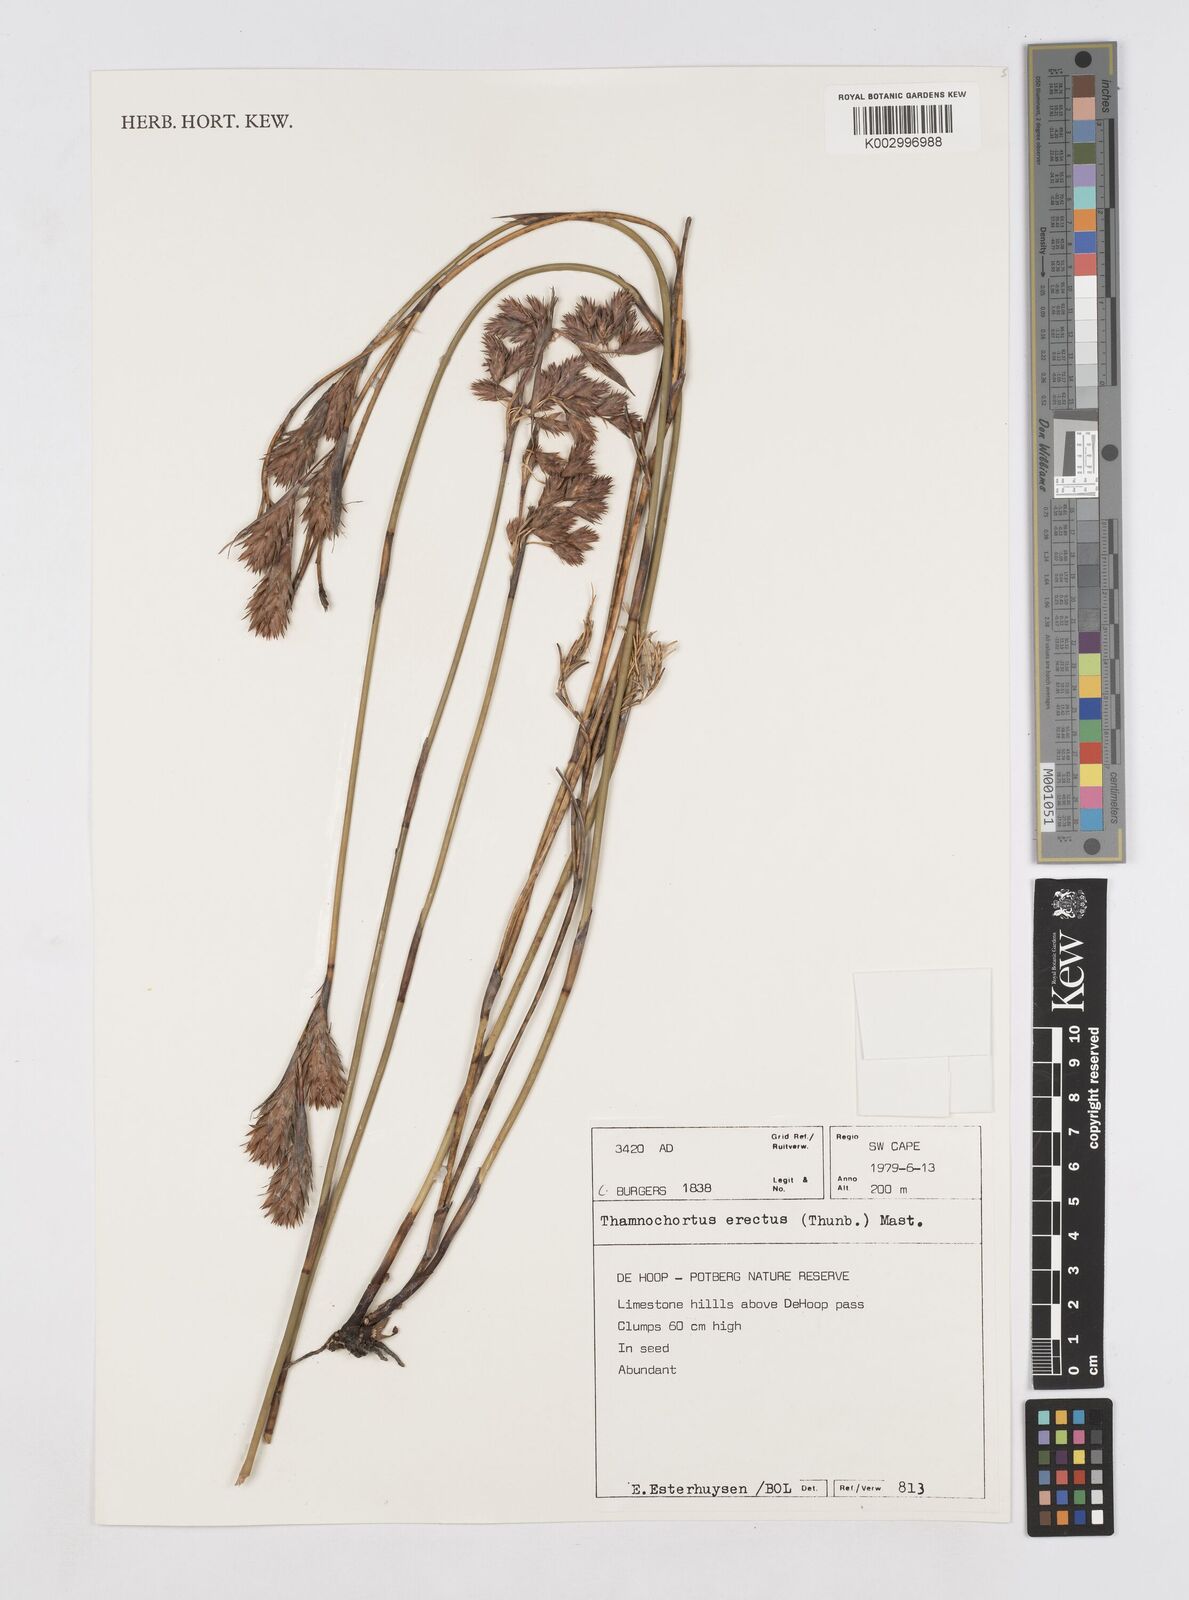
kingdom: Plantae
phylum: Tracheophyta
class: Liliopsida
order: Poales
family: Restionaceae
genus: Thamnochortus
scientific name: Thamnochortus erectus
